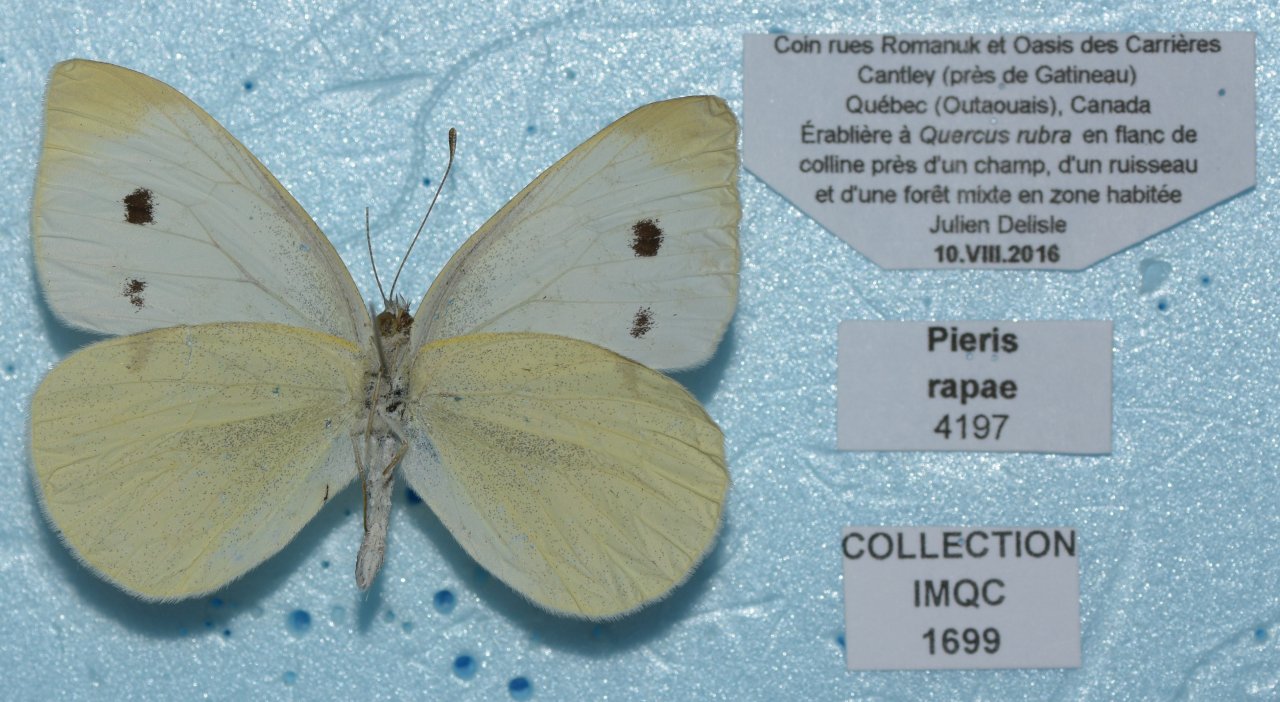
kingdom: Animalia
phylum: Arthropoda
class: Insecta
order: Lepidoptera
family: Pieridae
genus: Pieris
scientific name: Pieris rapae
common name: Cabbage White
